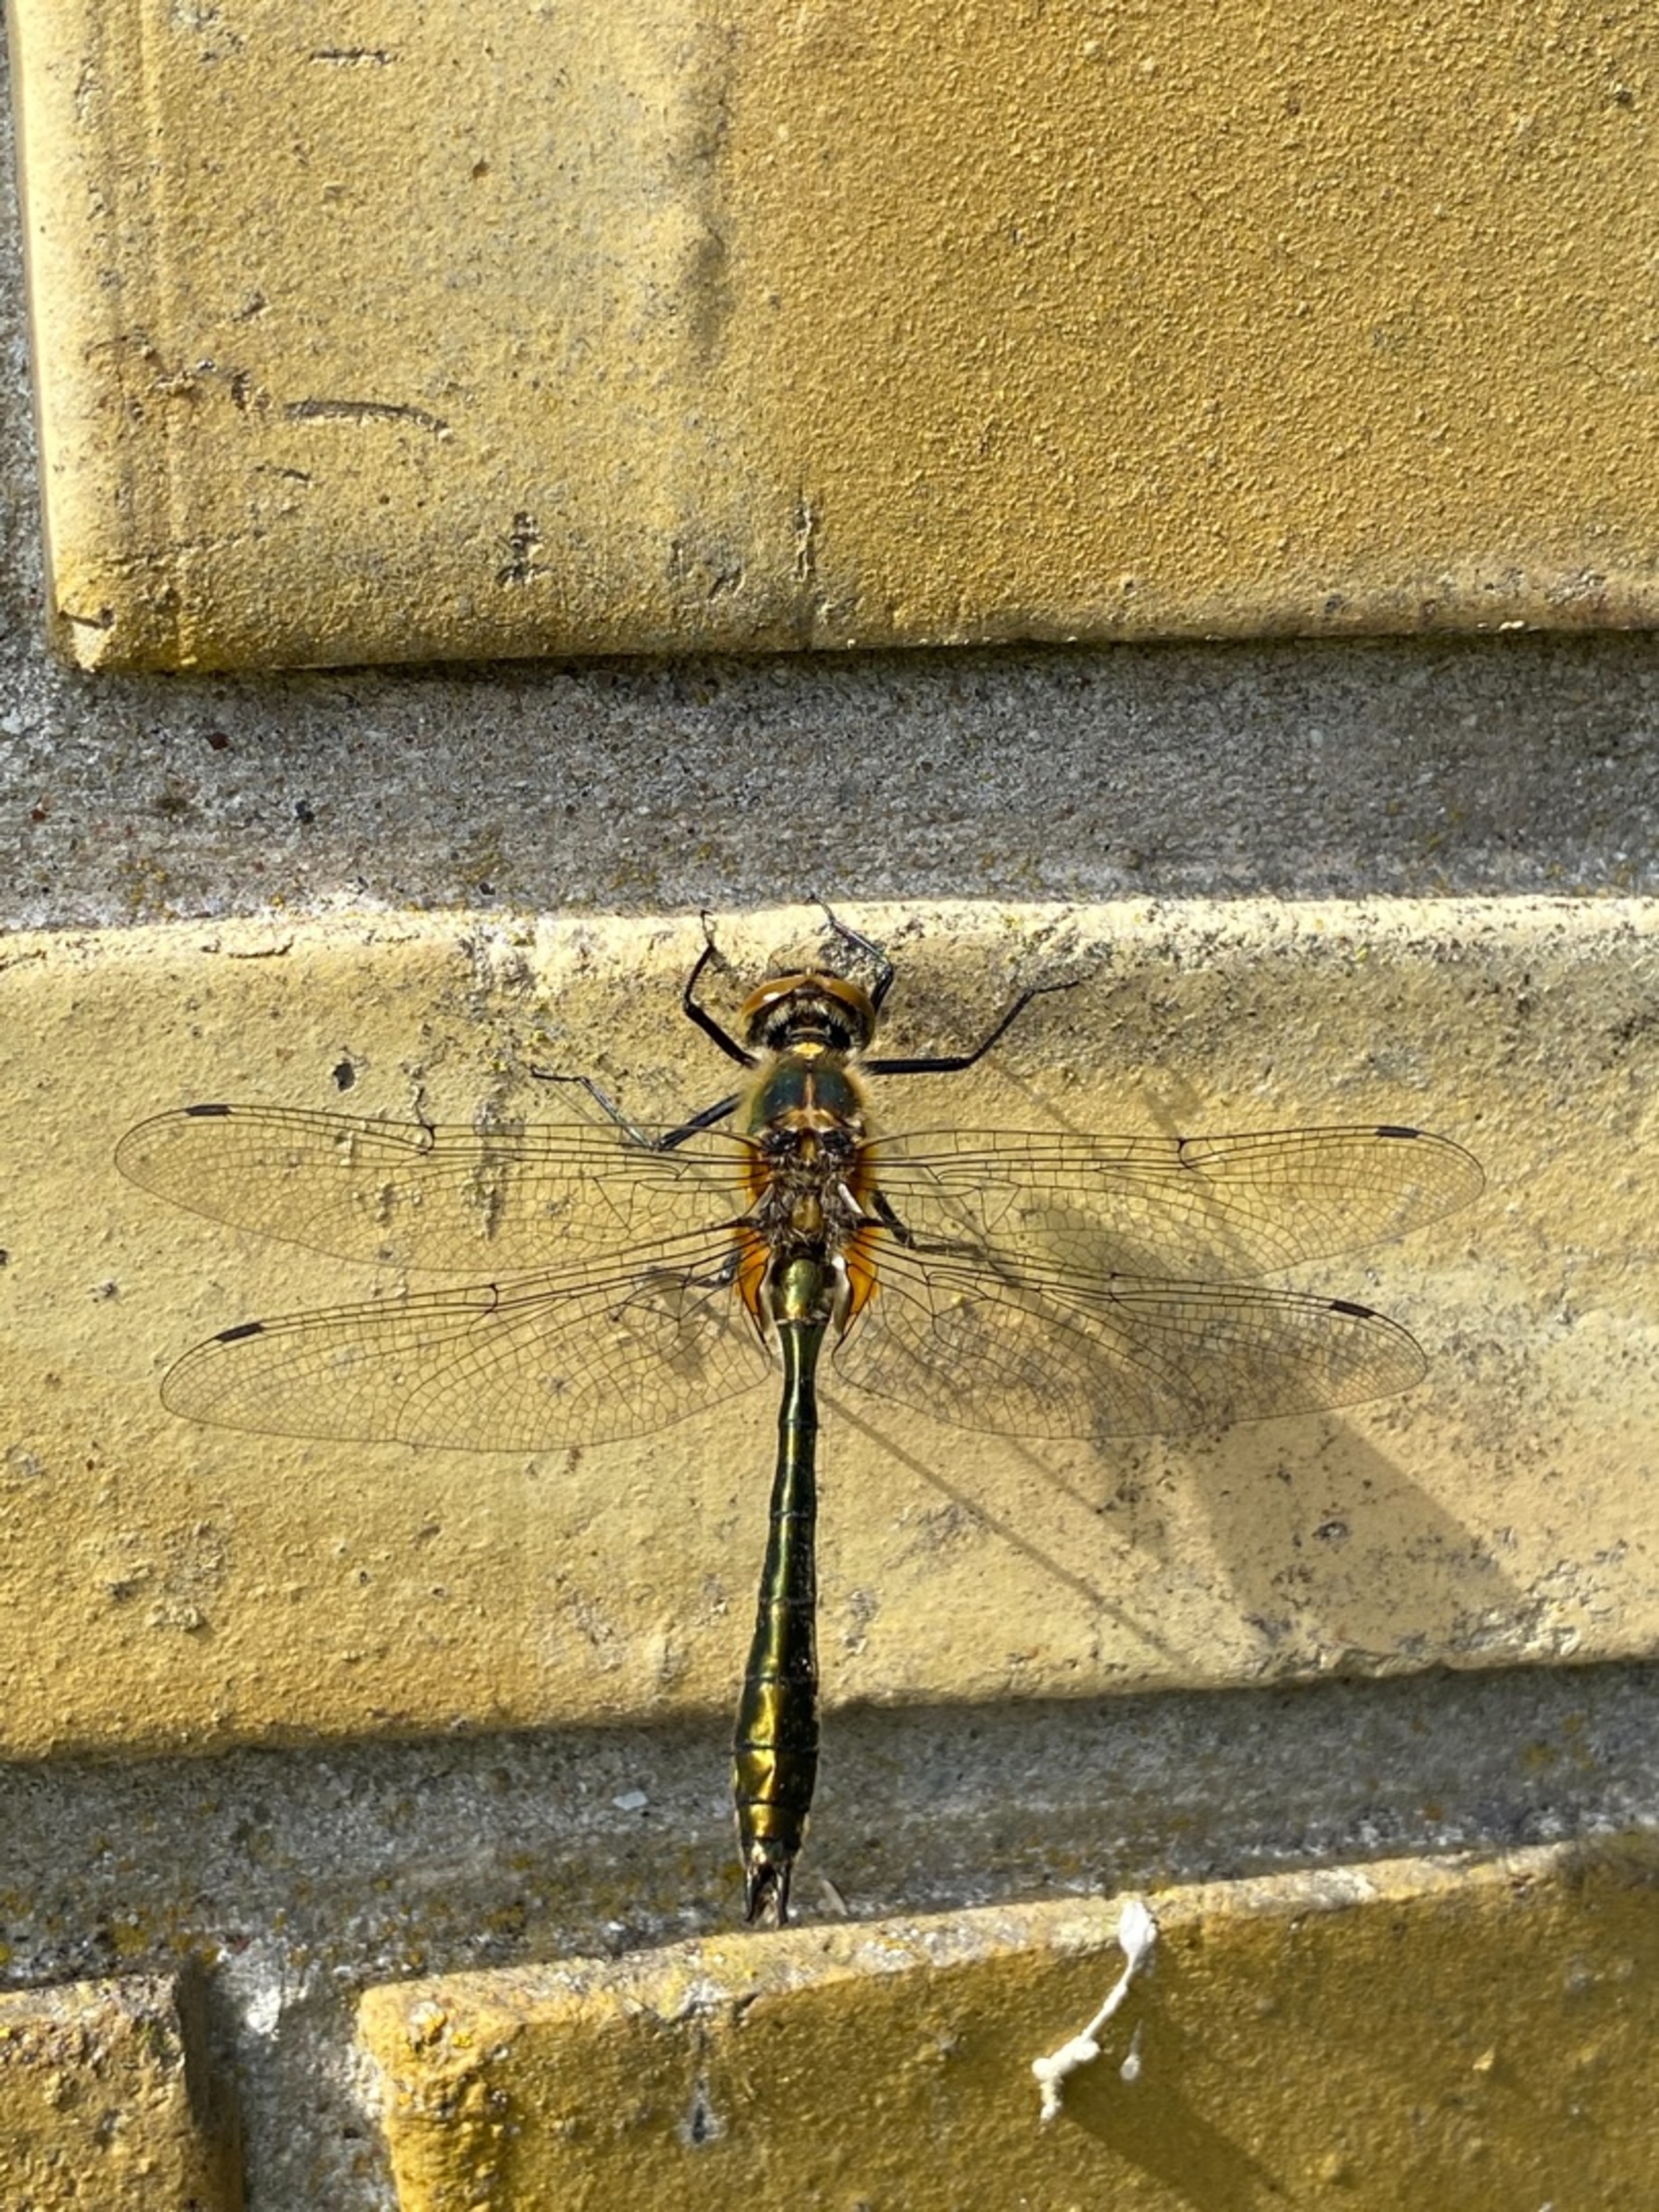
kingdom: Animalia
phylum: Arthropoda
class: Insecta
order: Odonata
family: Corduliidae
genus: Cordulia
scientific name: Cordulia aenea
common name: Grøn smaragdlibel
